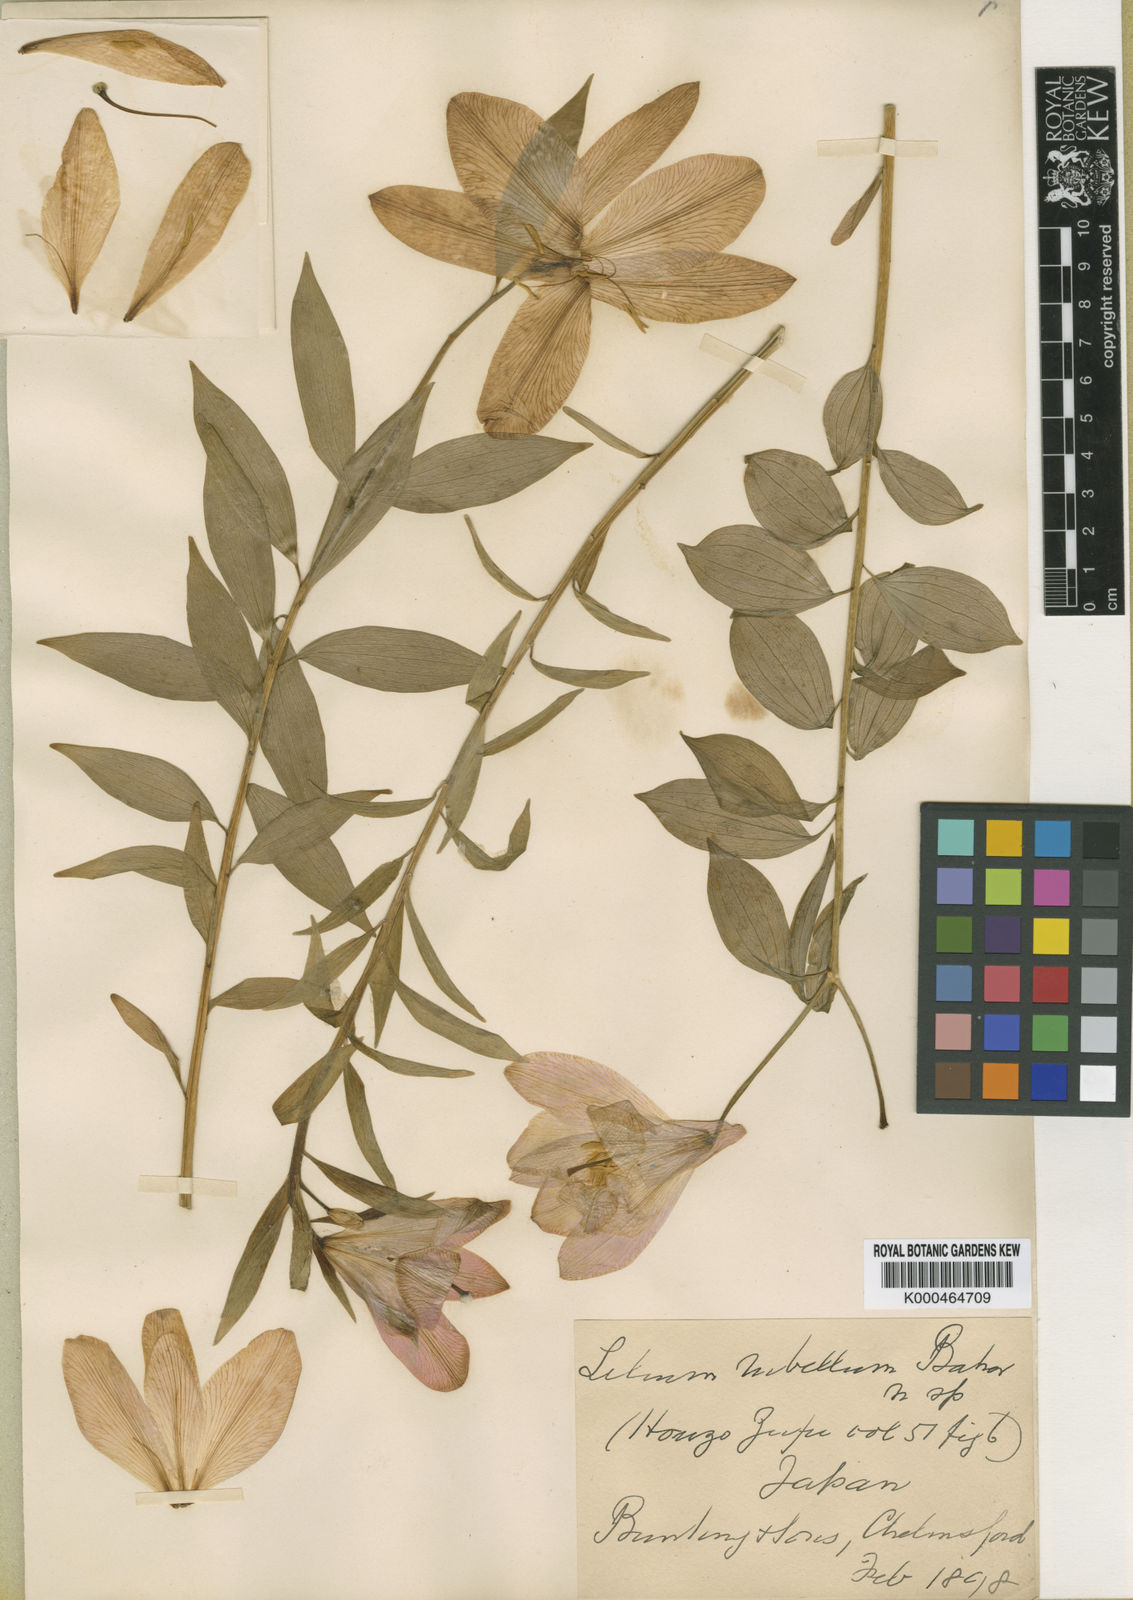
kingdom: Plantae
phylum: Tracheophyta
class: Liliopsida
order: Liliales
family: Liliaceae
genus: Lilium
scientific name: Lilium rubellum
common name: Rubellum lily
